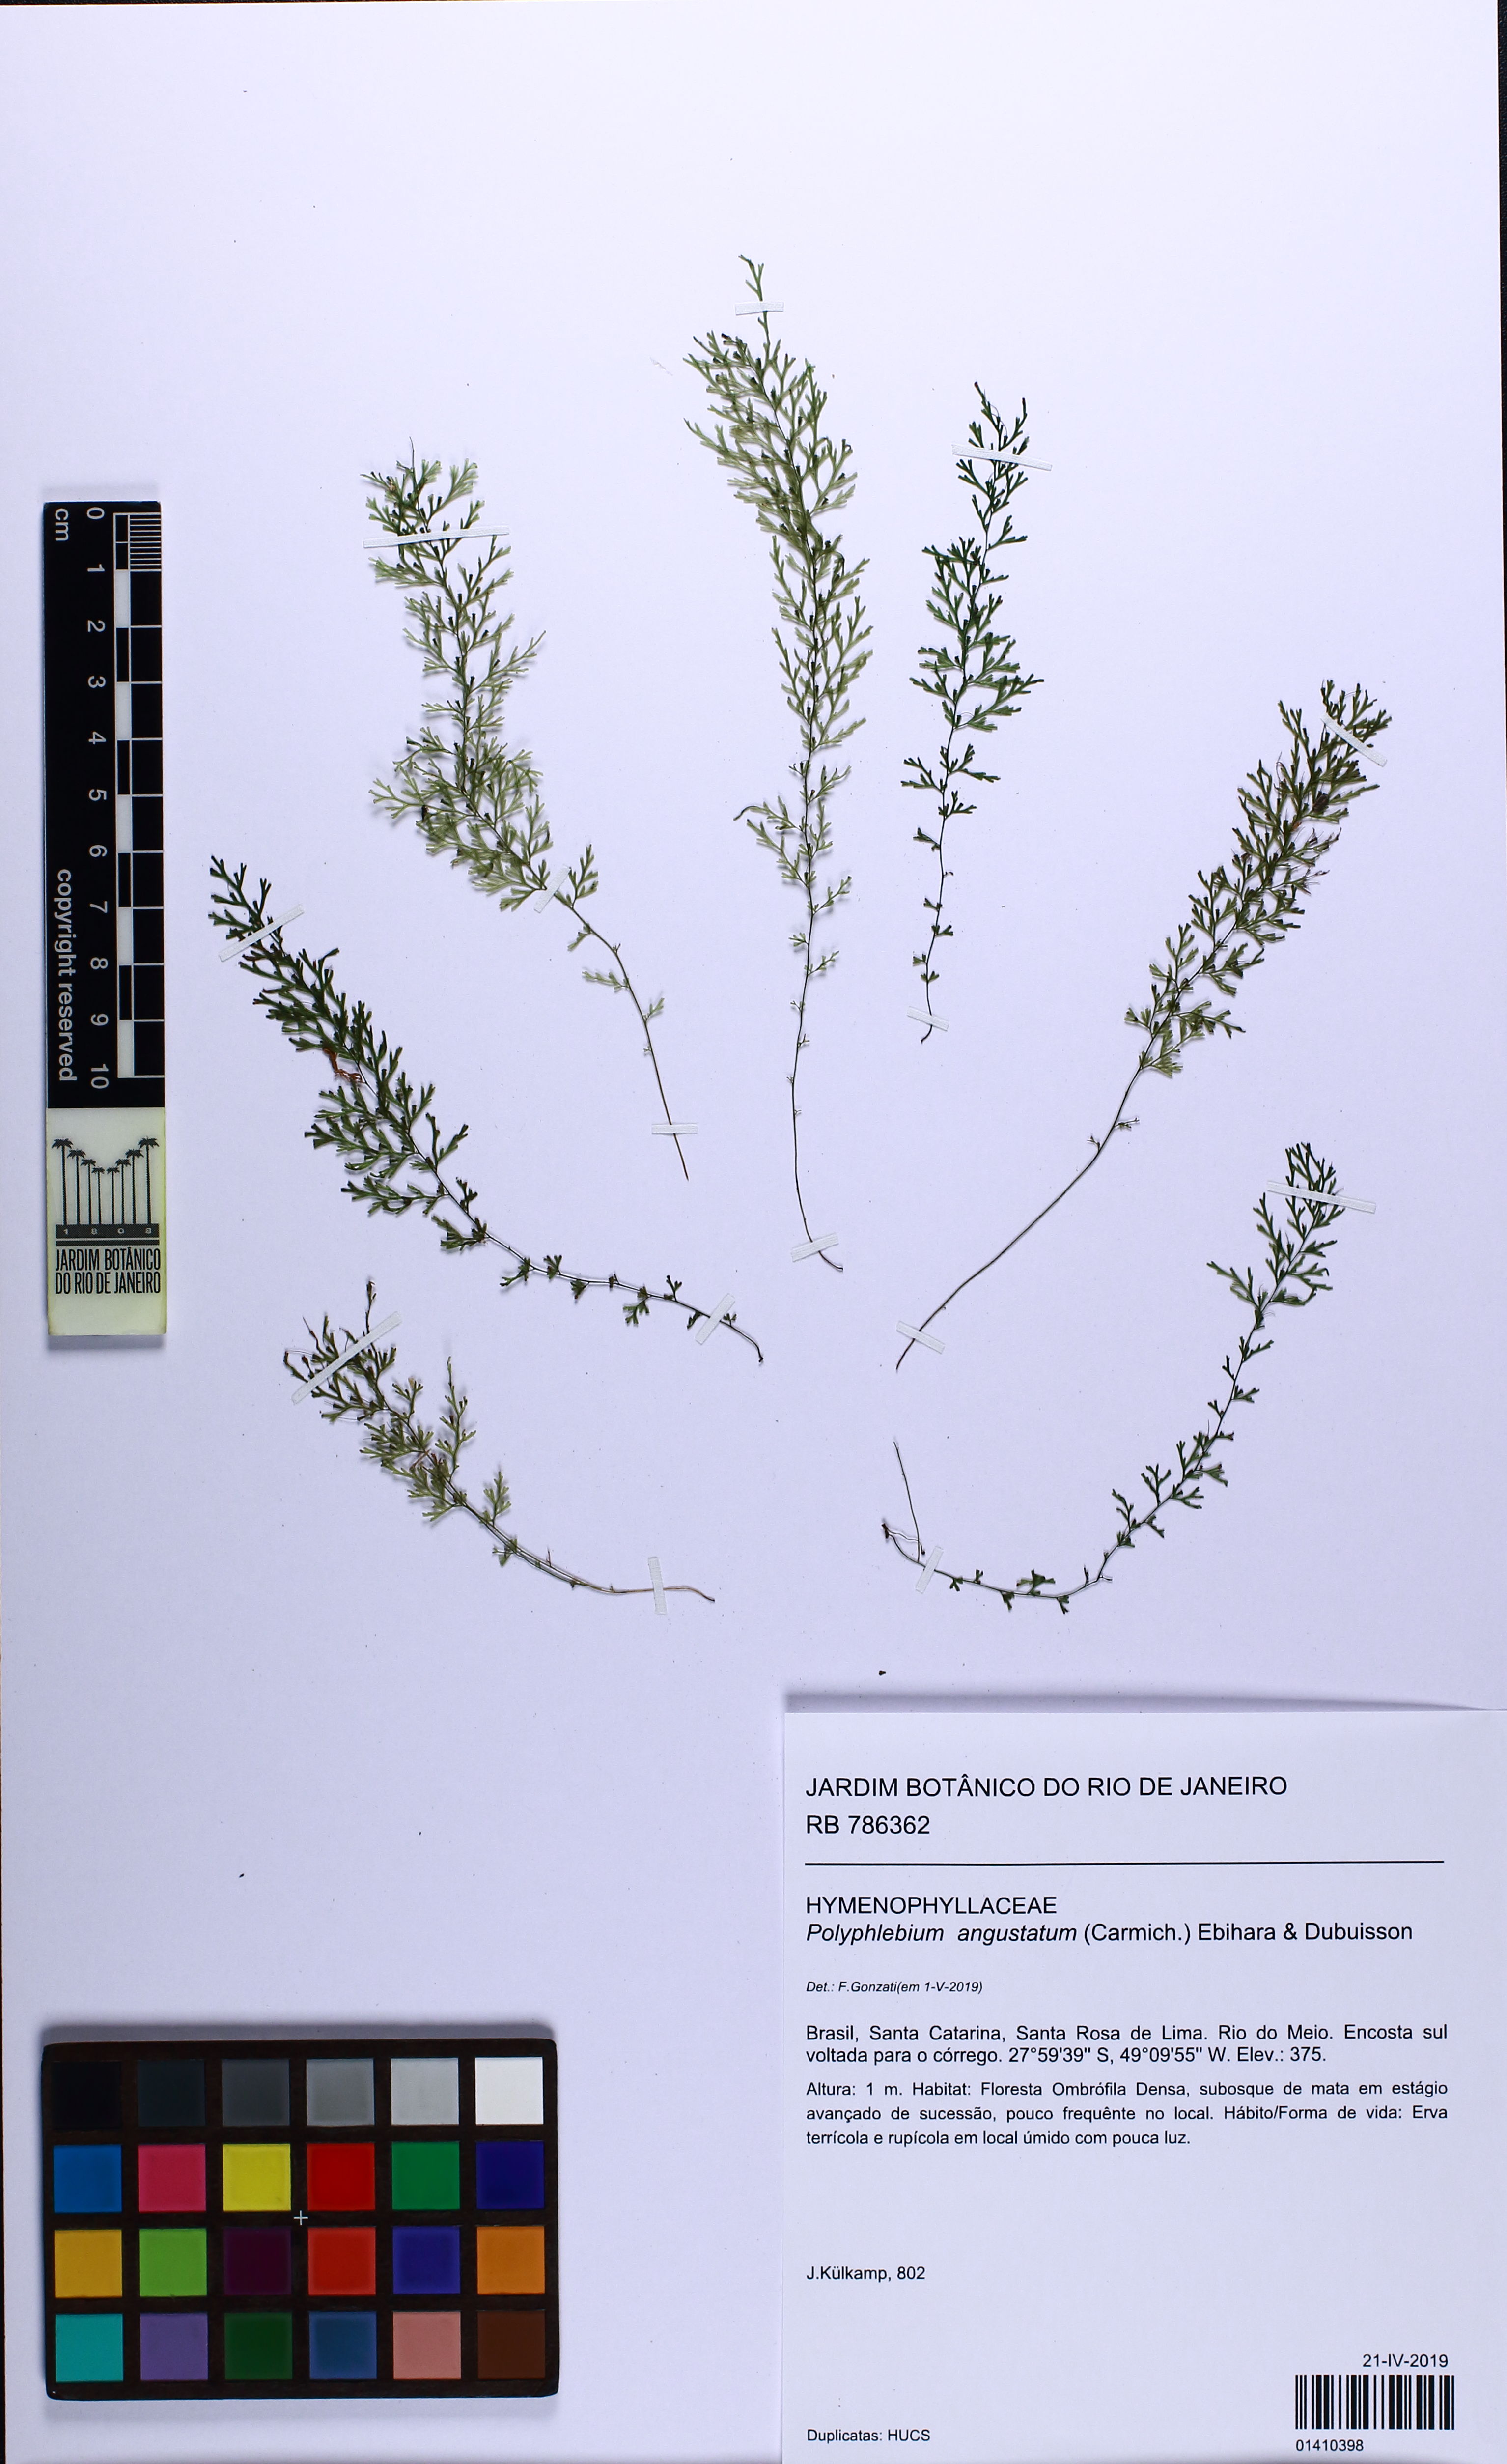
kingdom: Plantae
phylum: Tracheophyta
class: Polypodiopsida
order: Hymenophyllales
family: Hymenophyllaceae
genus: Polyphlebium
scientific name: Polyphlebium angustatum
